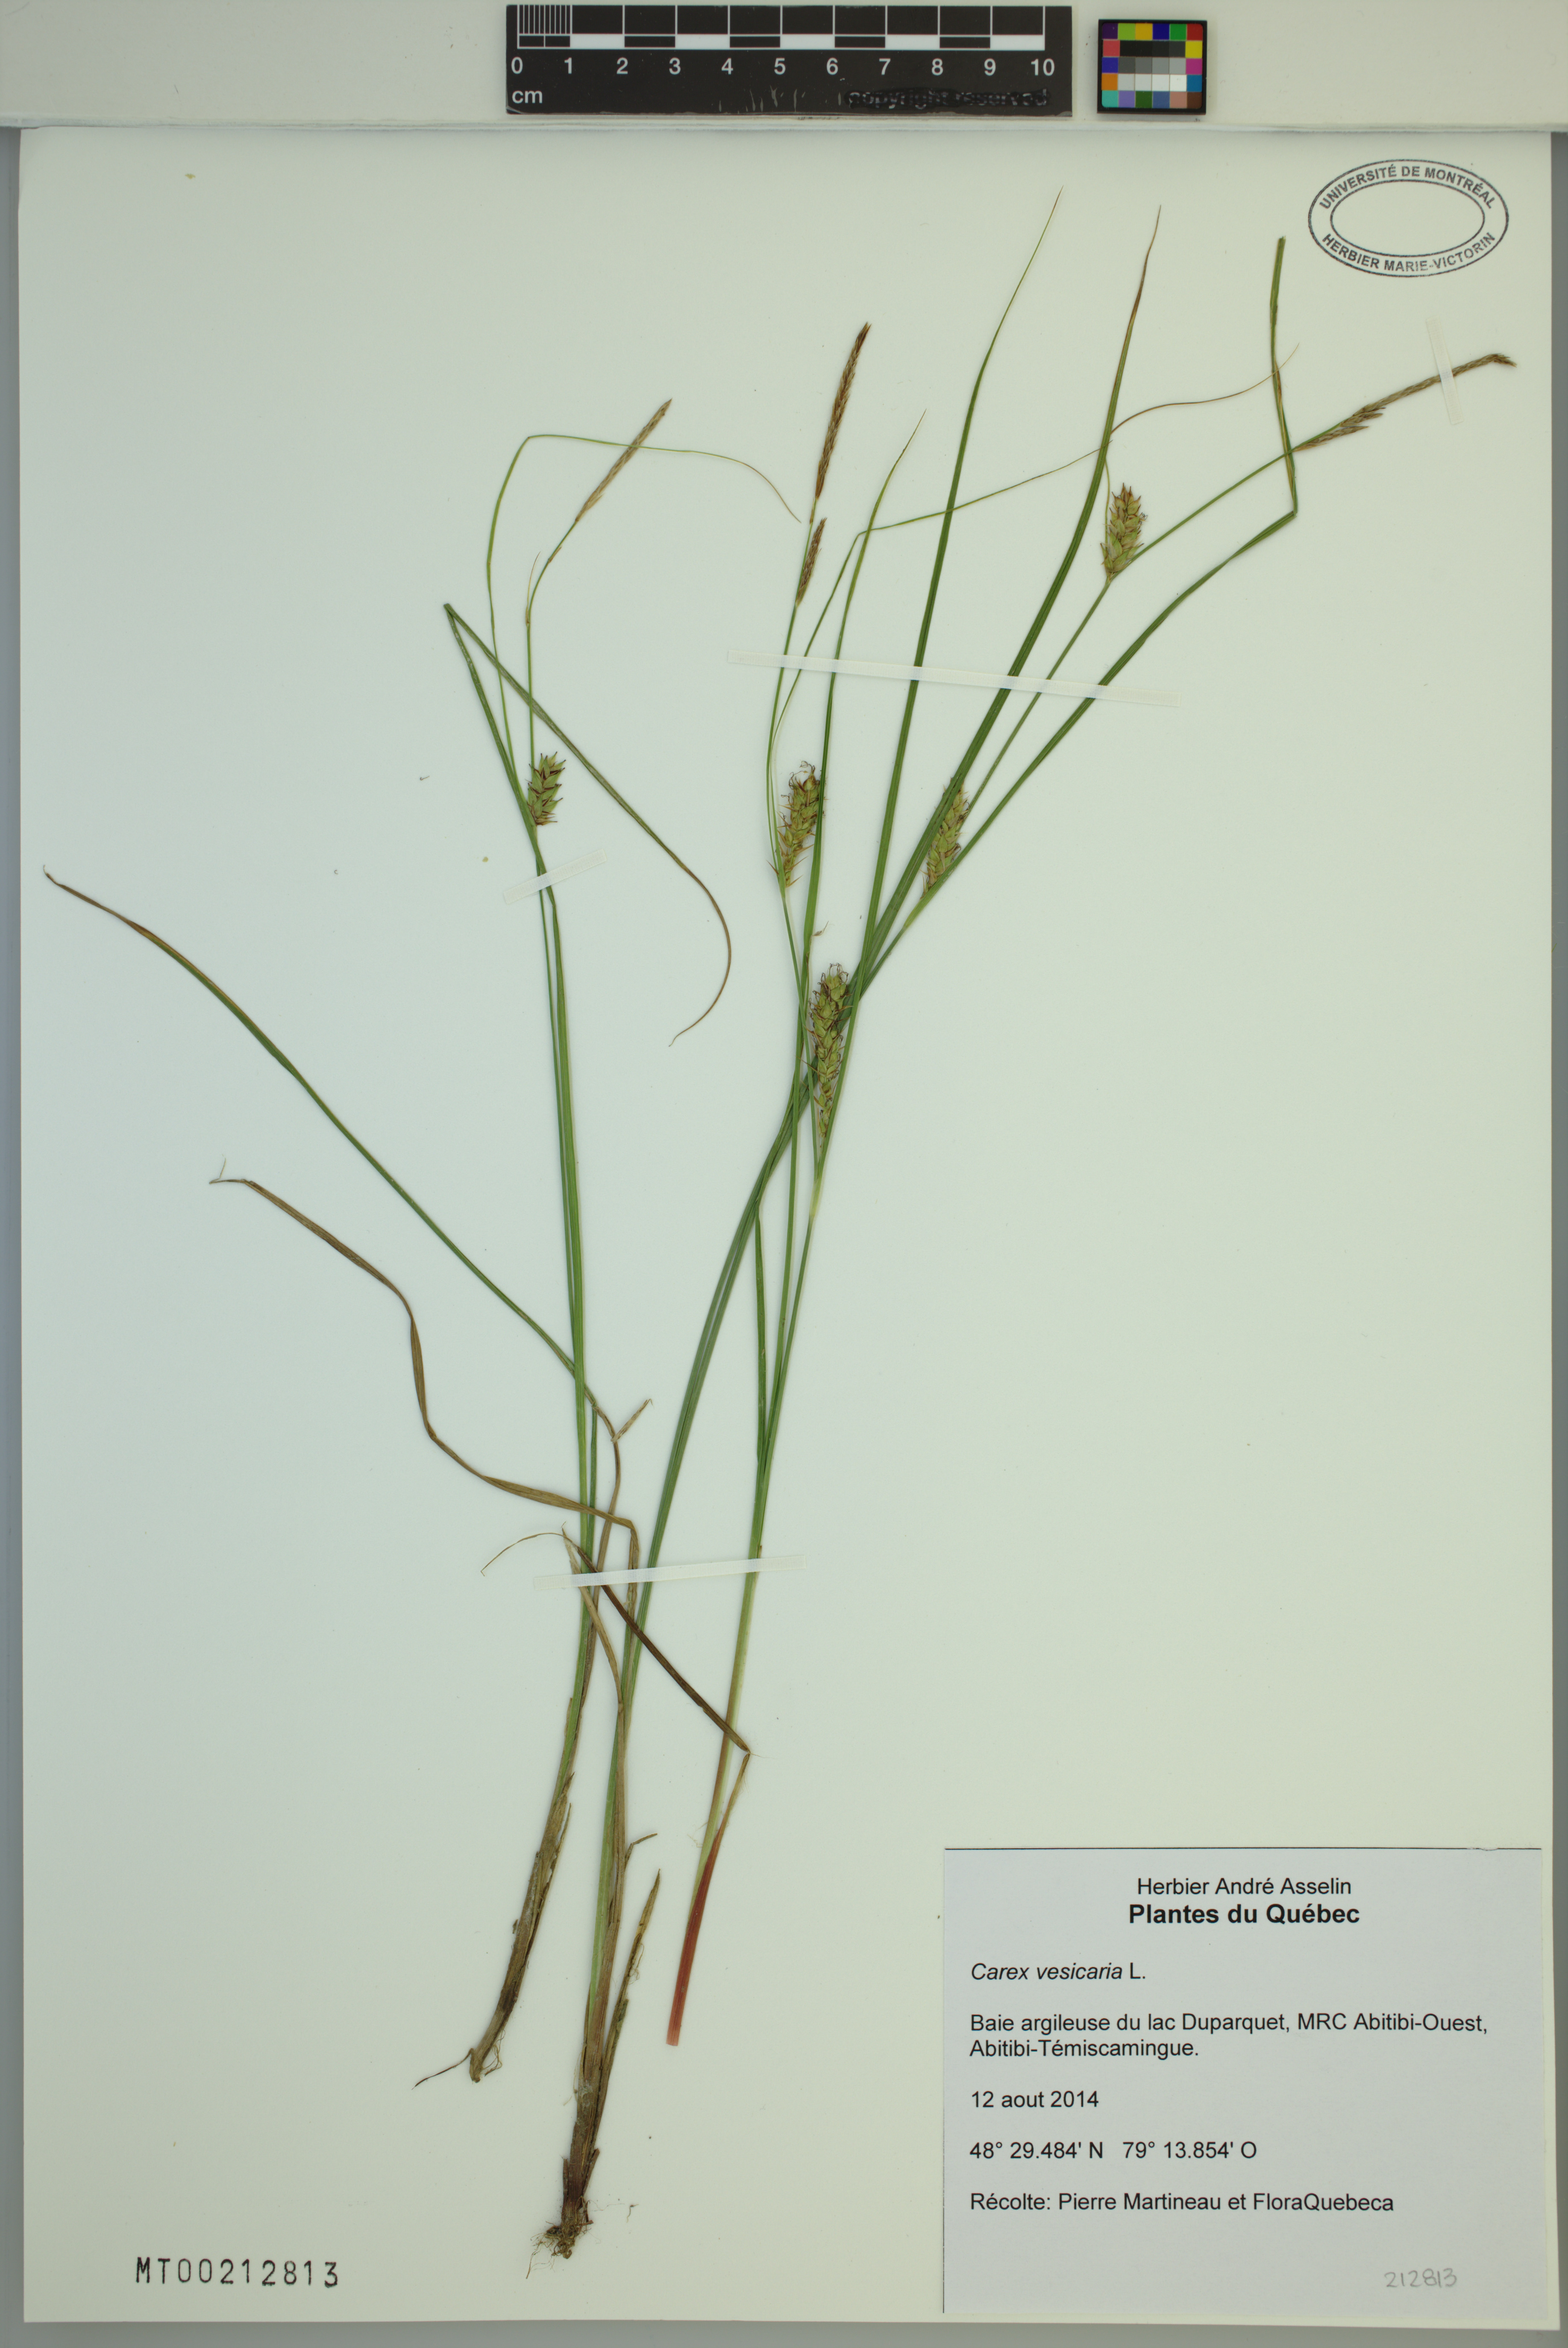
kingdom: Plantae
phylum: Tracheophyta
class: Liliopsida
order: Poales
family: Cyperaceae
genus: Carex
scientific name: Carex vesicaria
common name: Bladder-sedge
